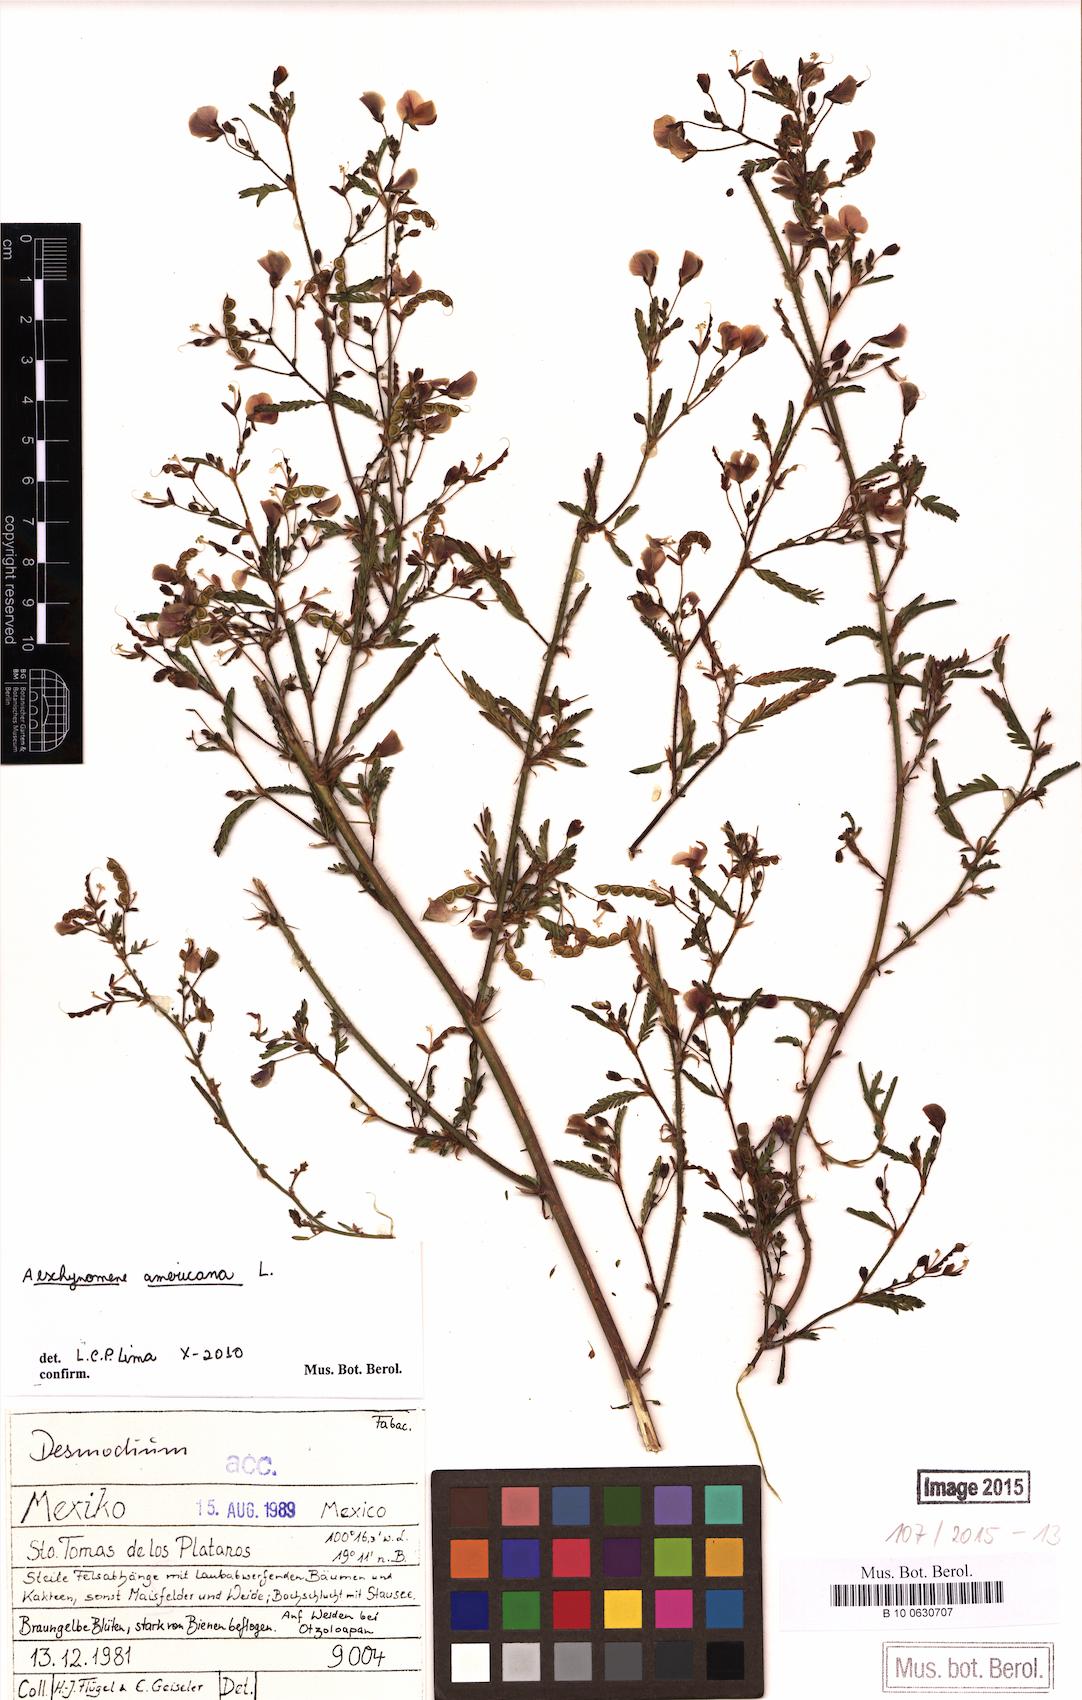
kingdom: Plantae
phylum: Tracheophyta
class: Magnoliopsida
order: Fabales
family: Fabaceae
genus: Aeschynomene
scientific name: Aeschynomene americana
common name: Joint-vetch
